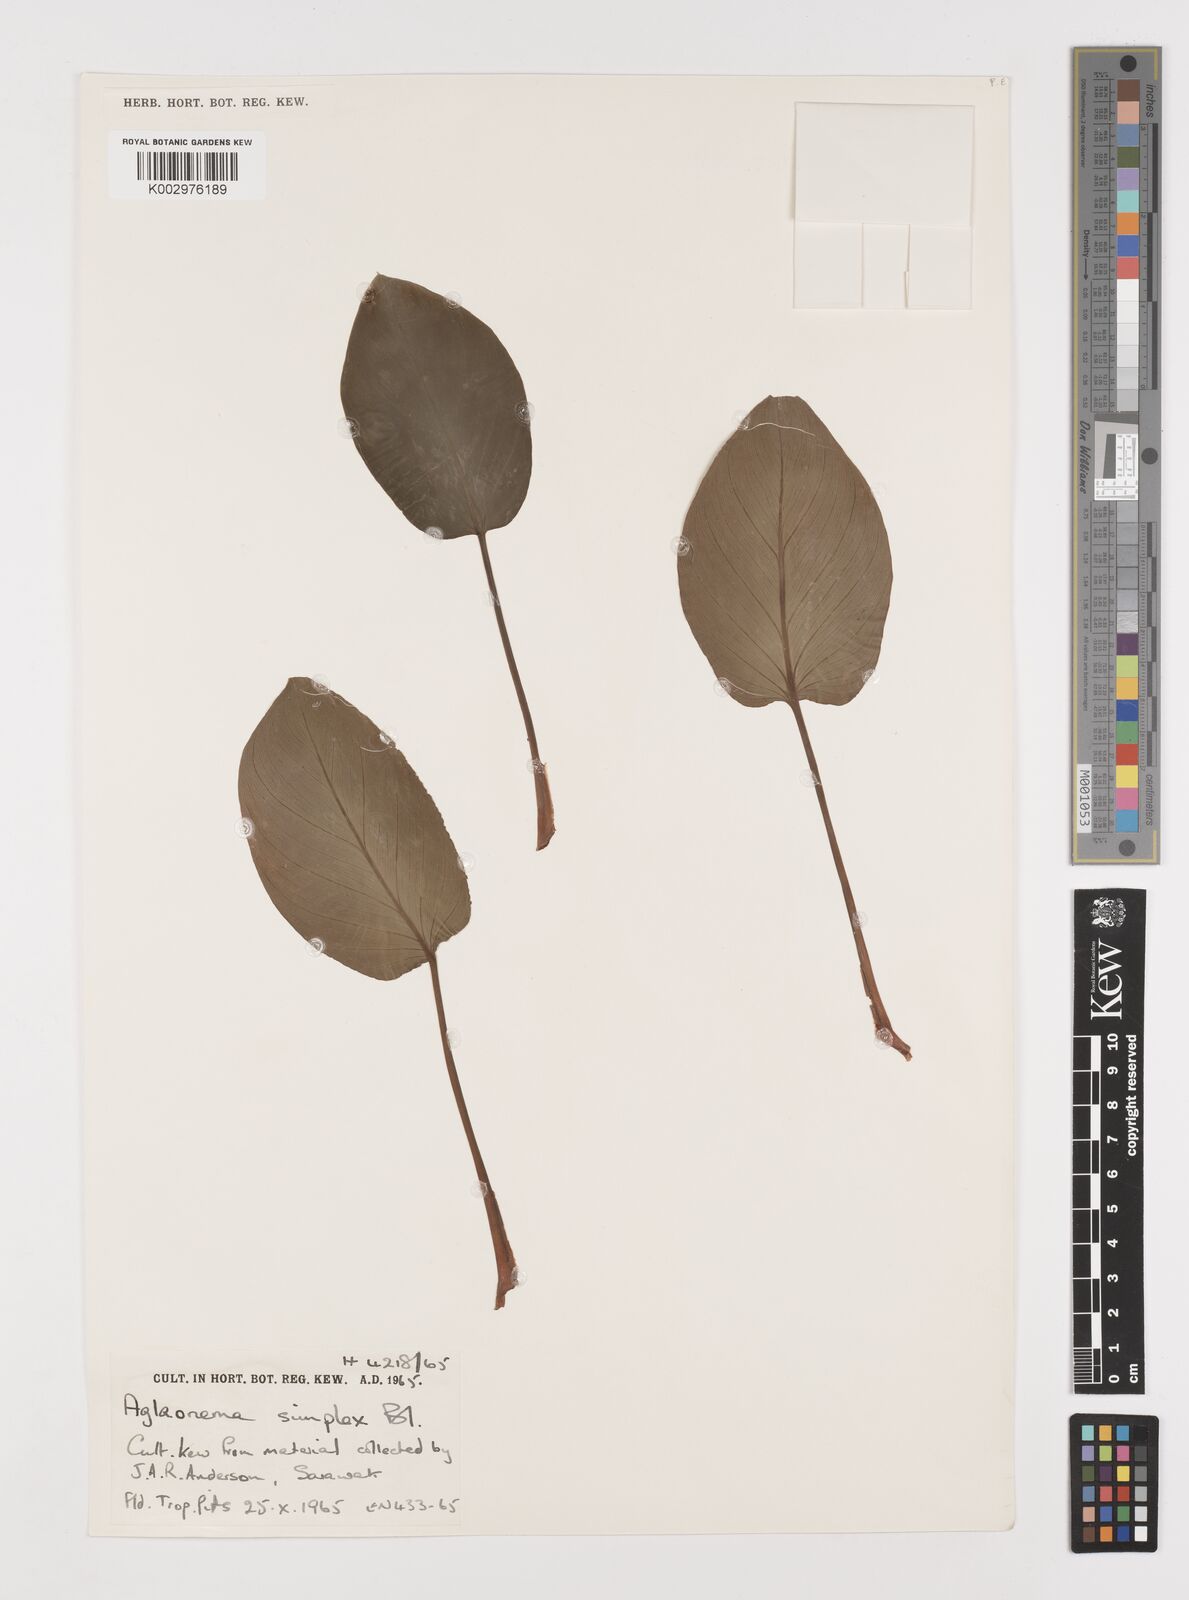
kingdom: Plantae
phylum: Tracheophyta
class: Liliopsida
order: Alismatales
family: Araceae
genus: Aglaonema
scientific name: Aglaonema simplex
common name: Malayan-sword
